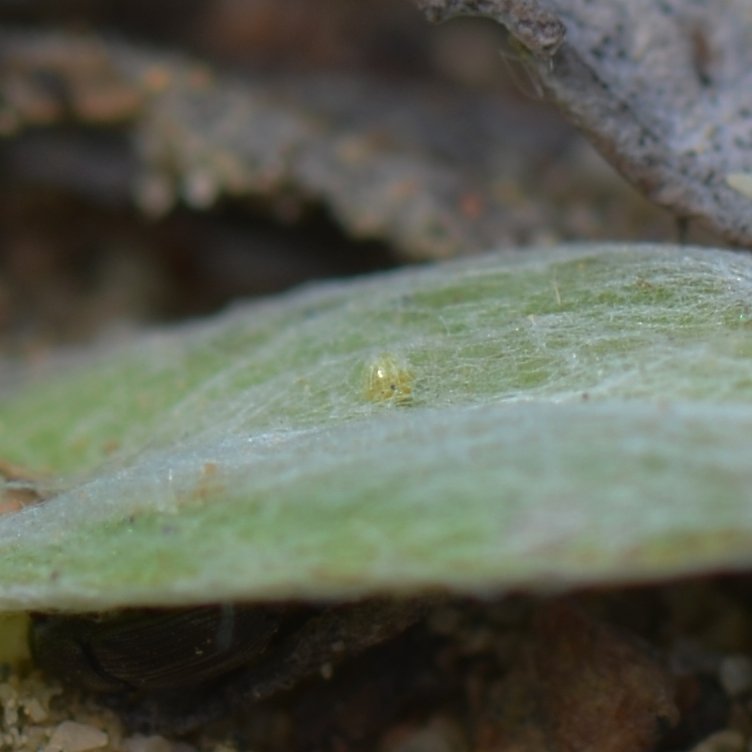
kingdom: Animalia
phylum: Arthropoda
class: Insecta
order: Lepidoptera
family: Nymphalidae
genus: Vanessa
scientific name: Vanessa virginiensis
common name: American Lady
